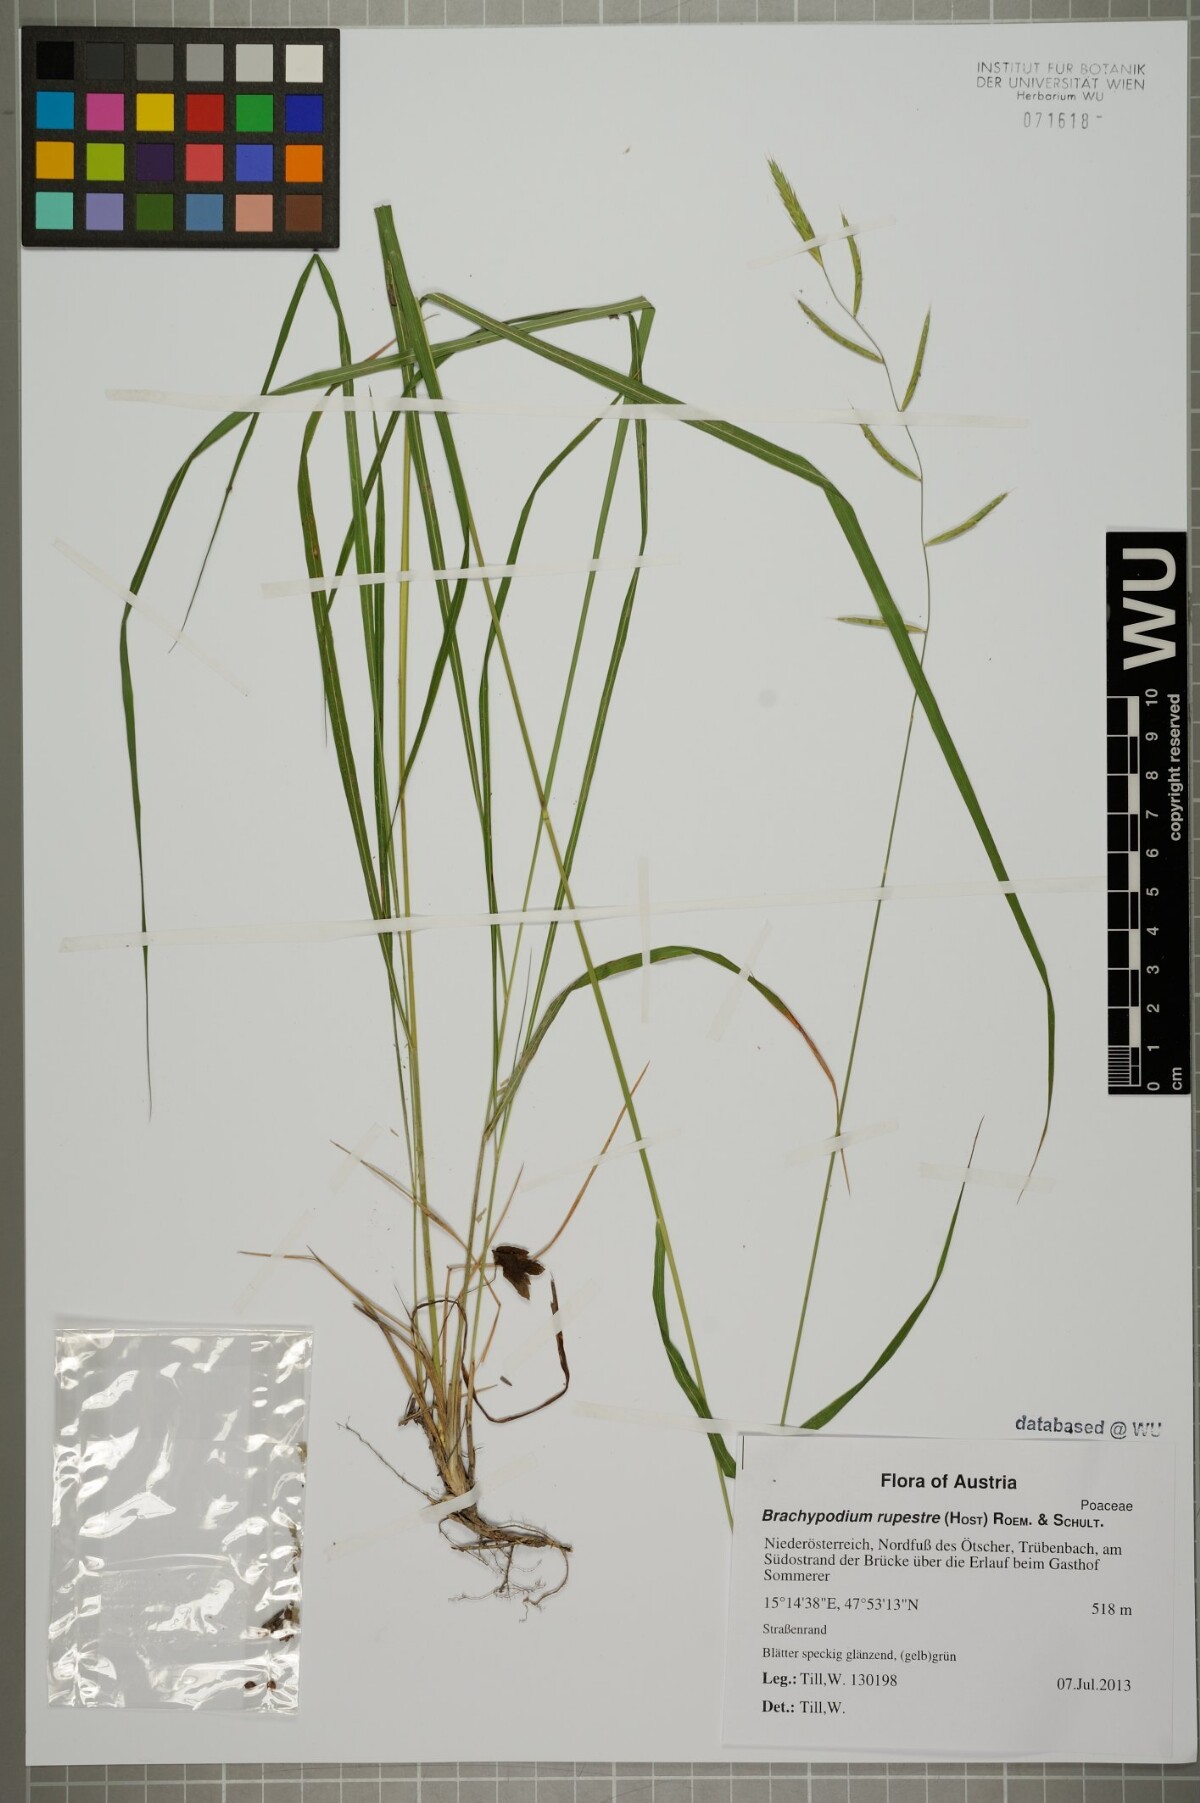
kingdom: Plantae
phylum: Tracheophyta
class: Liliopsida
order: Poales
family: Poaceae
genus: Brachypodium
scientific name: Brachypodium pinnatum
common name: Tor grass
